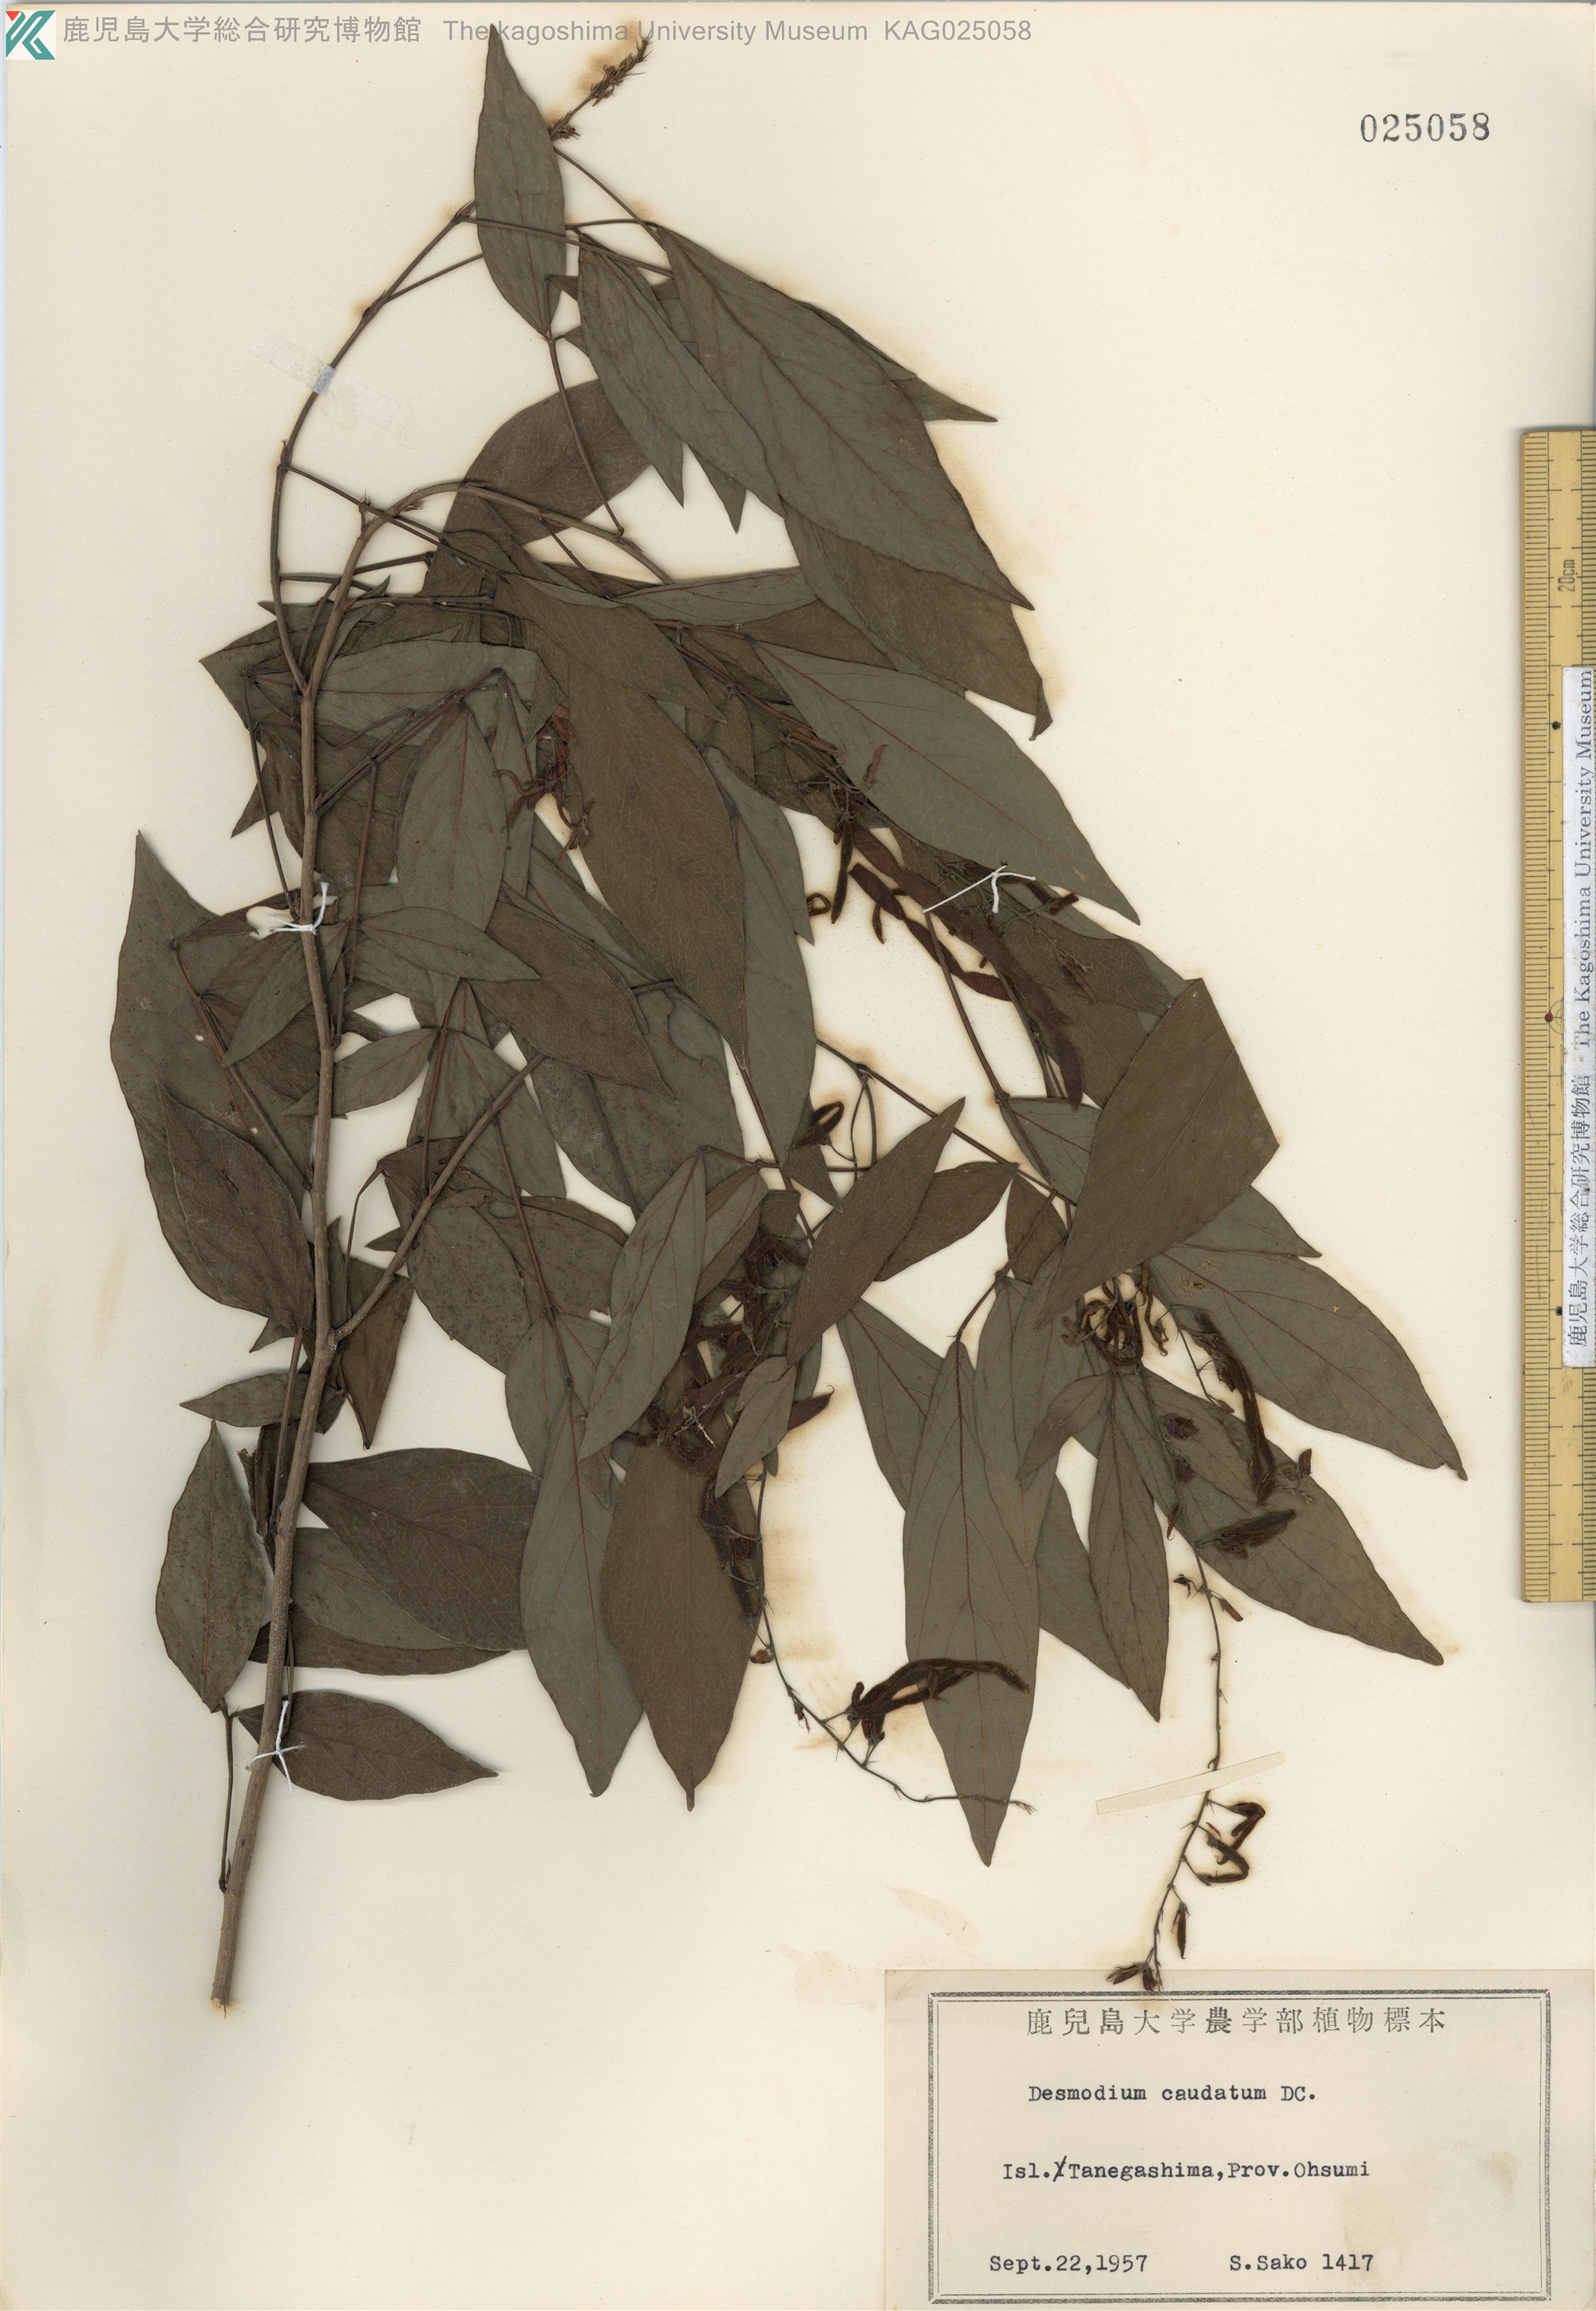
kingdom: Plantae
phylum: Tracheophyta
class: Magnoliopsida
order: Fabales
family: Fabaceae
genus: Ohwia
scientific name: Ohwia caudata
